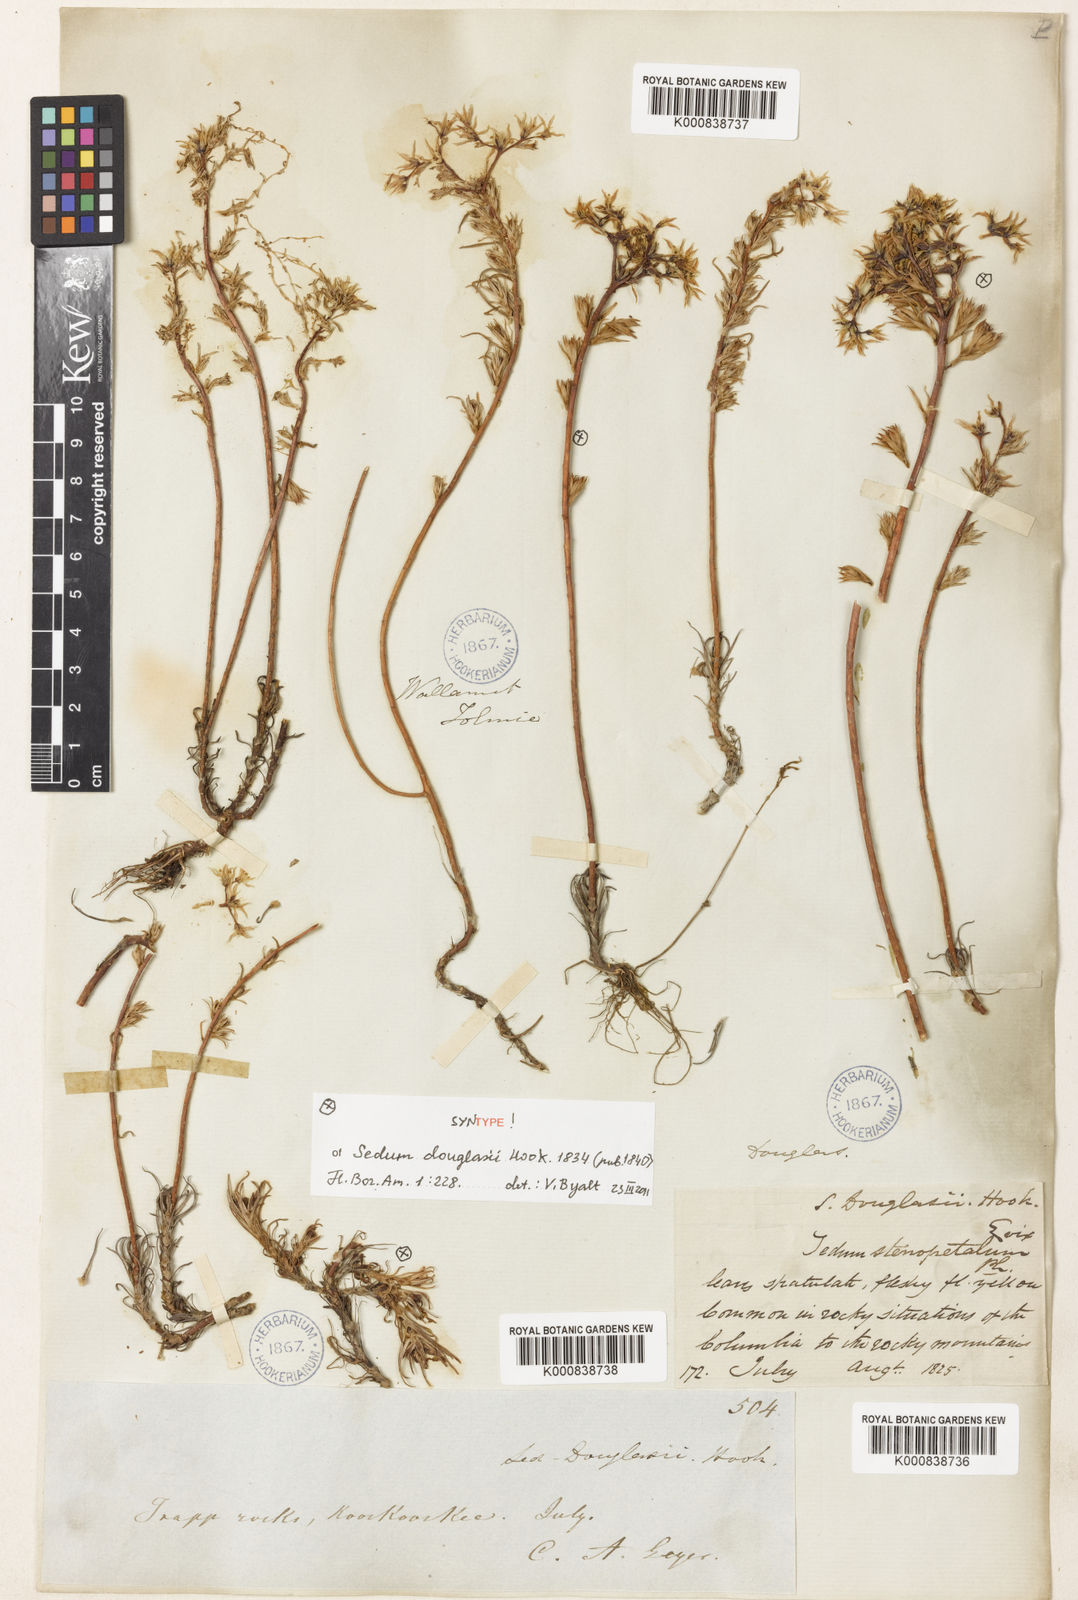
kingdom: Plantae
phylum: Tracheophyta
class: Magnoliopsida
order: Saxifragales
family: Crassulaceae
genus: Sedum
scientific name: Sedum stenopetalum
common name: Narrow-petaled stonecrop
